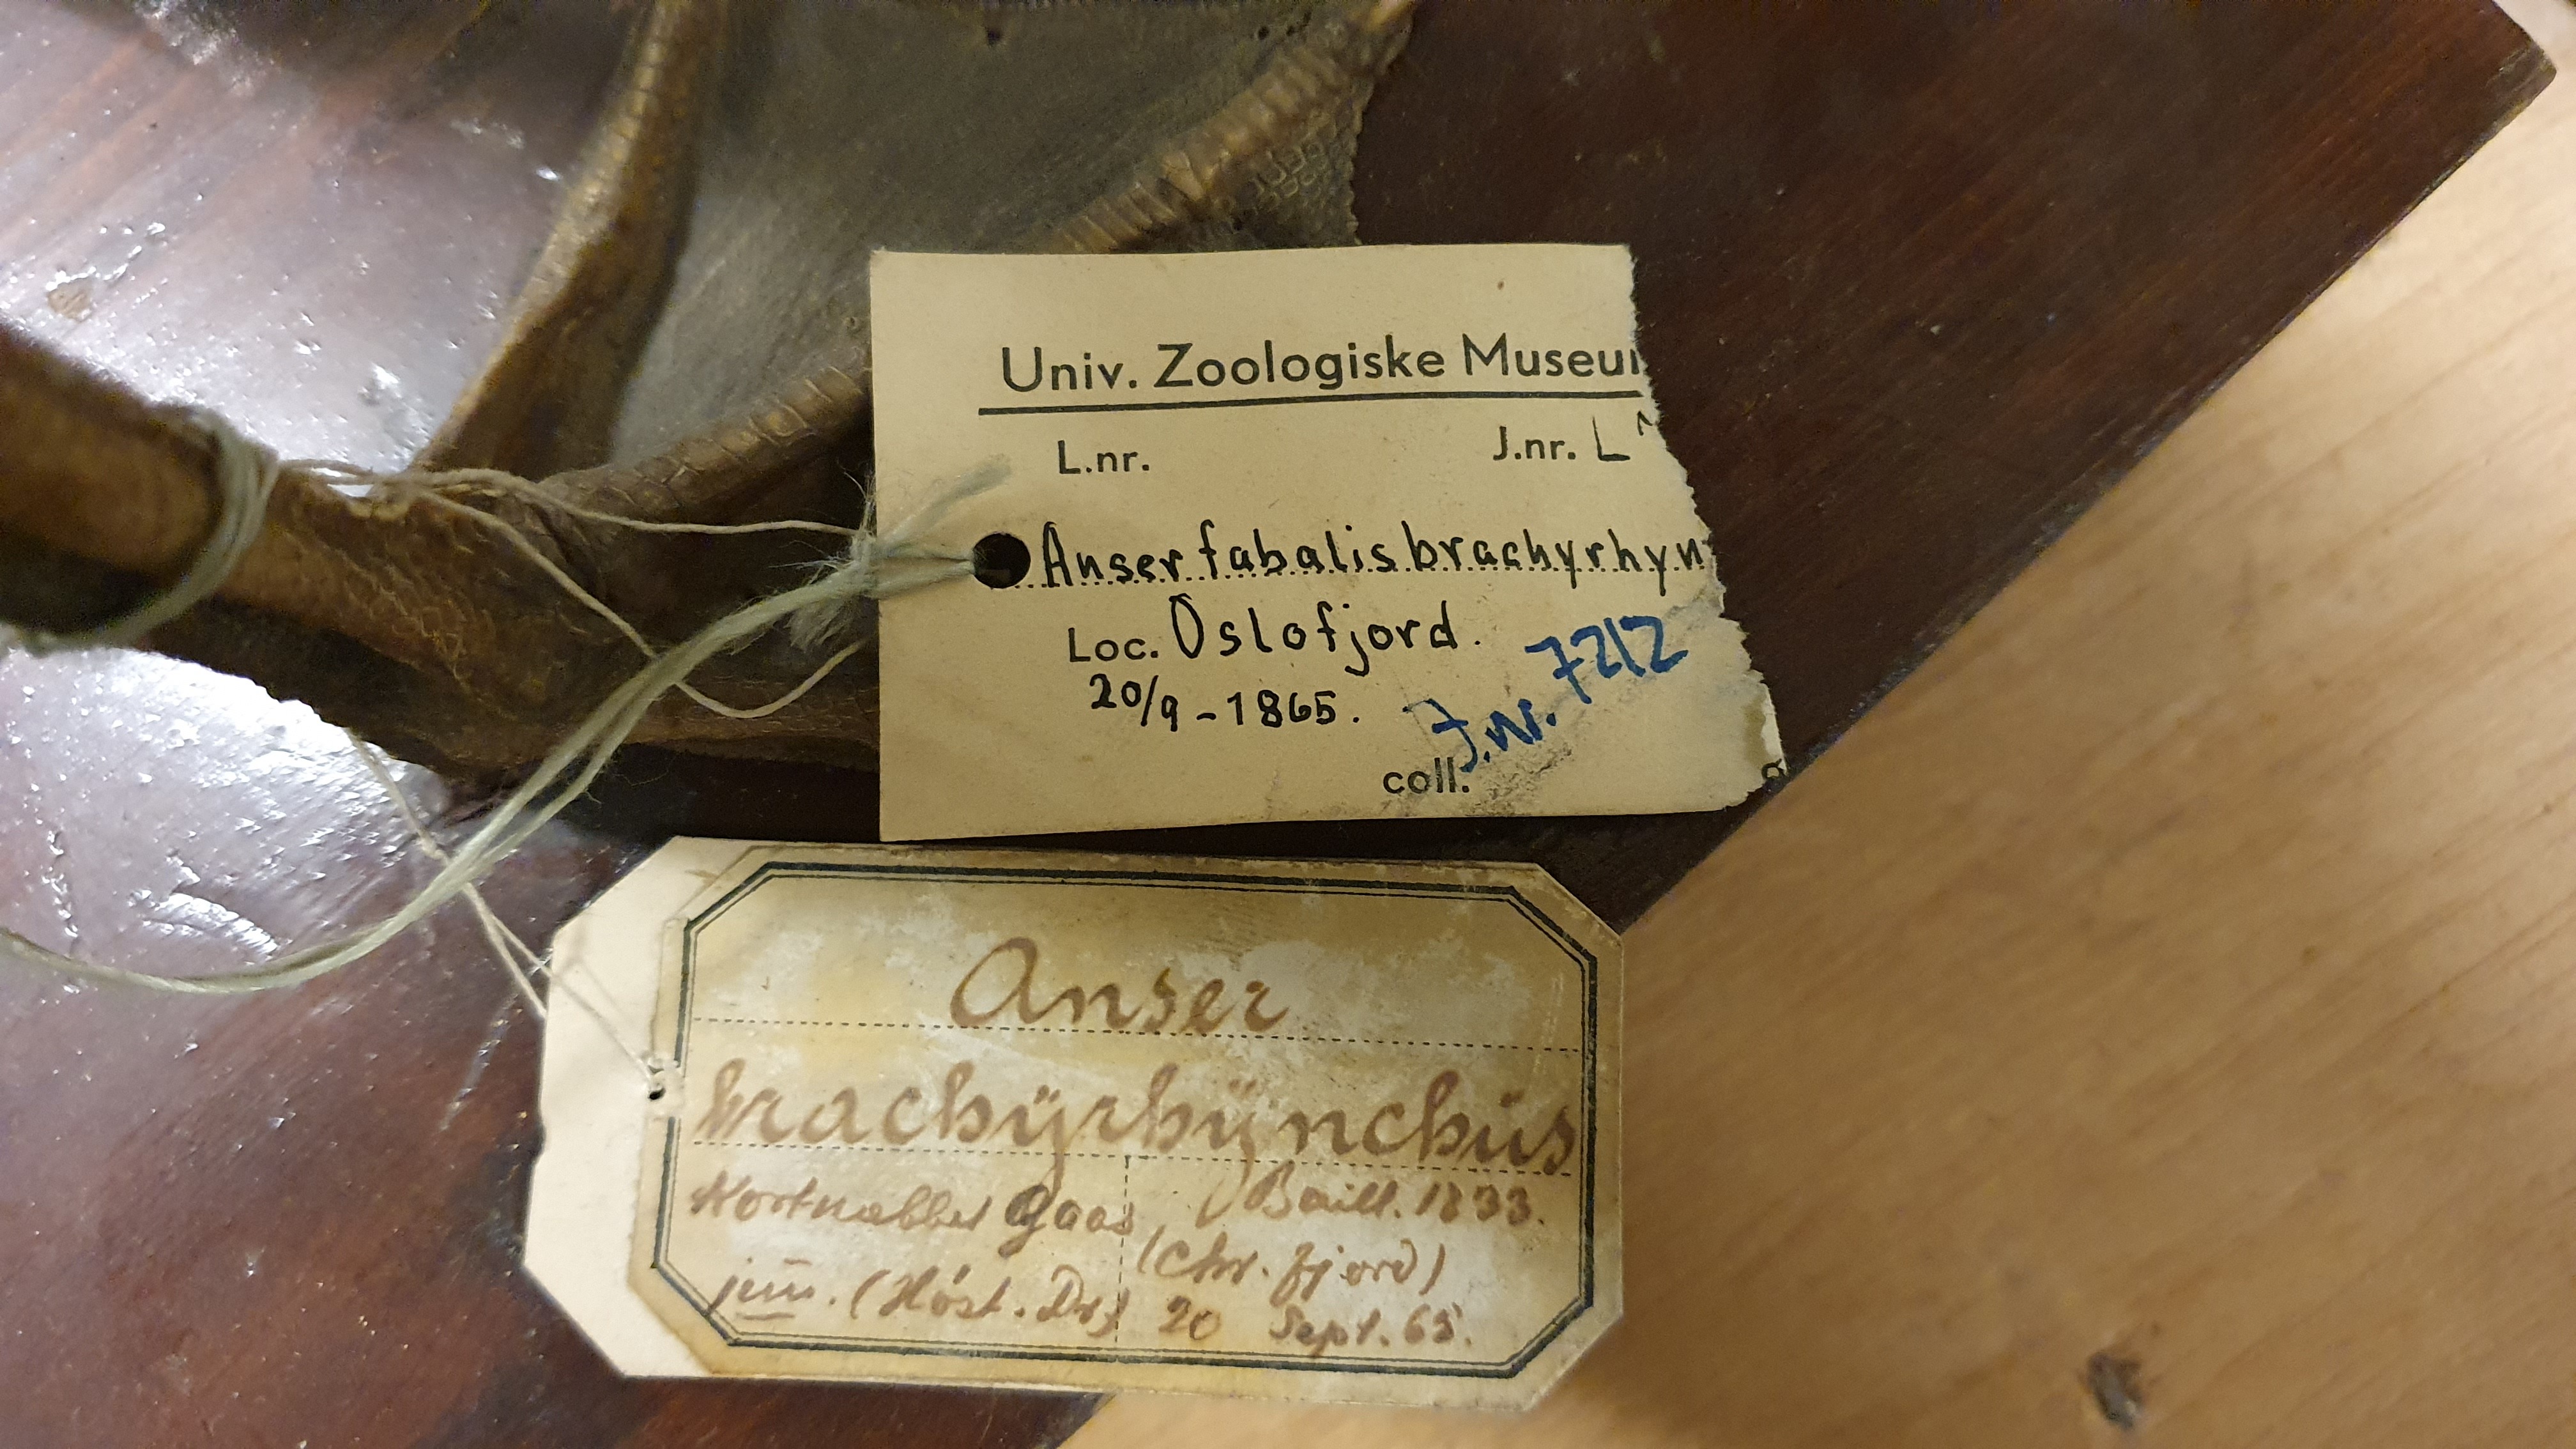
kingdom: Animalia
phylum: Chordata
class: Aves
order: Anseriformes
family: Anatidae
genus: Anser
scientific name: Anser brachyrhynchus
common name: Pink-footed goose
